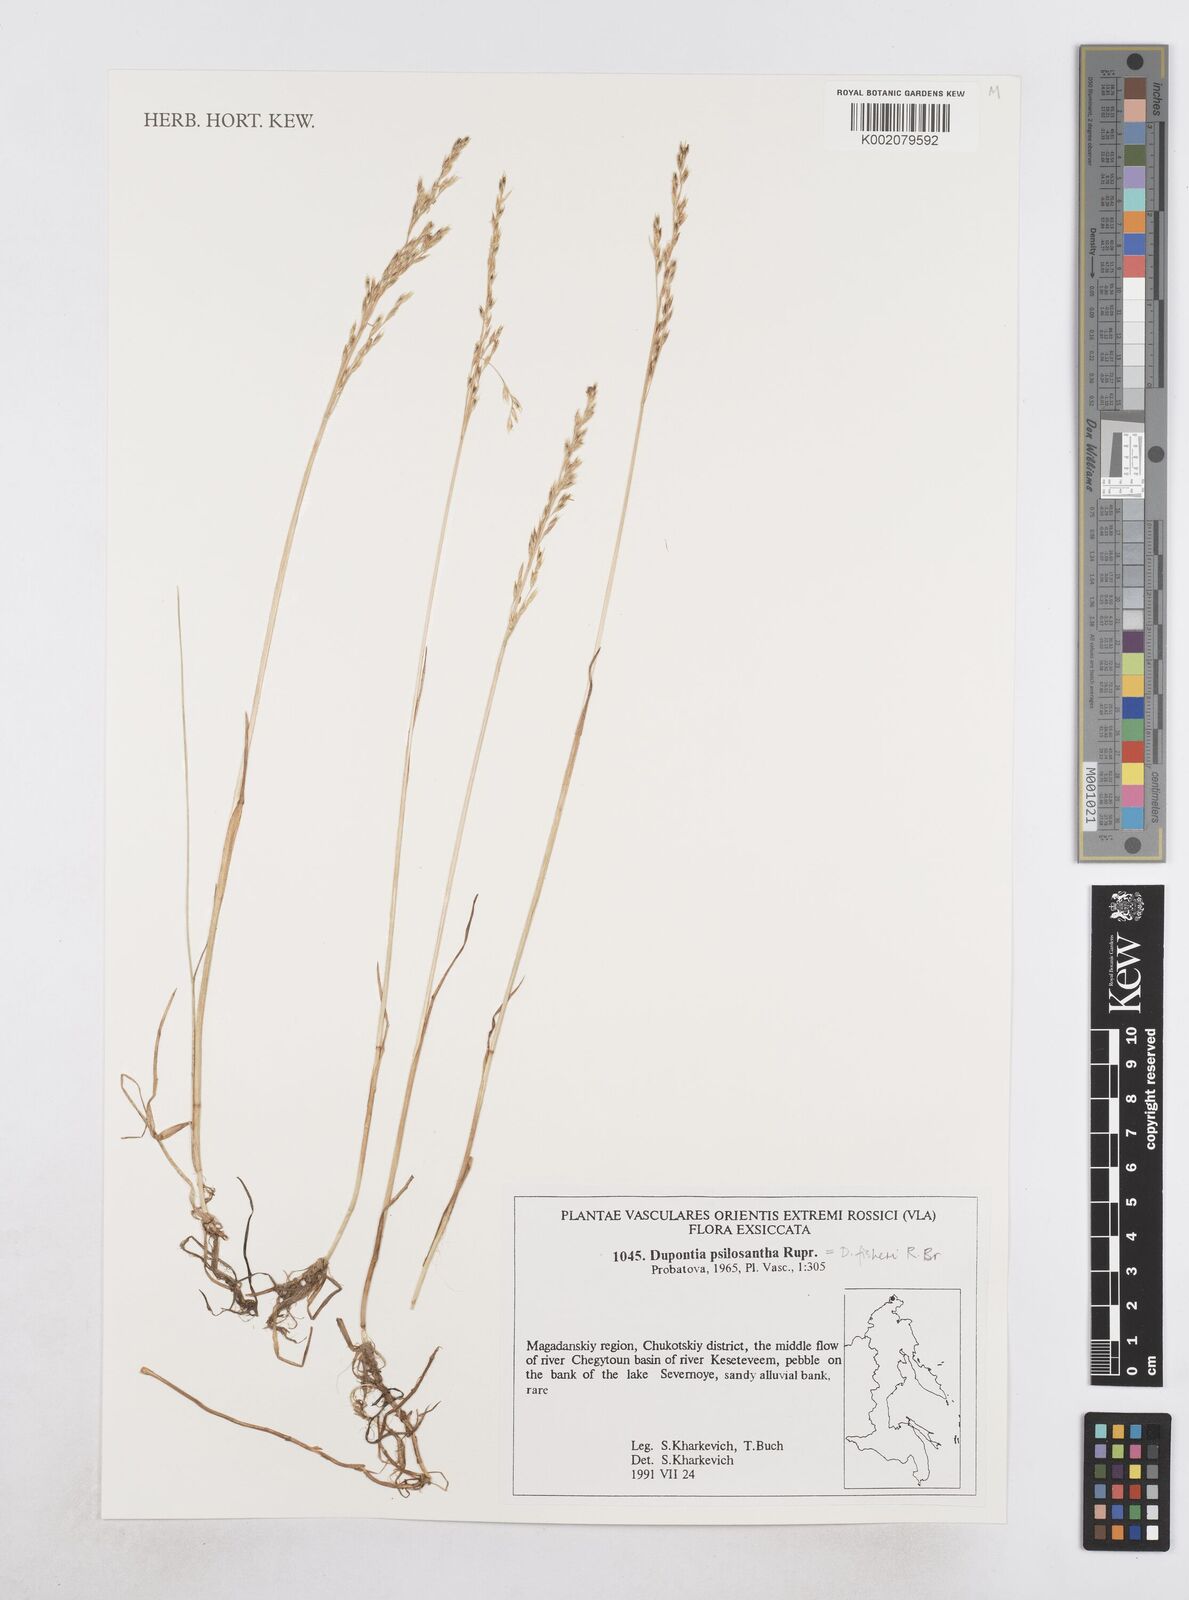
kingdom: Plantae
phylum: Tracheophyta
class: Liliopsida
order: Poales
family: Poaceae
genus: Dupontia
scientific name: Dupontia fisheri
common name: Tundra grass
